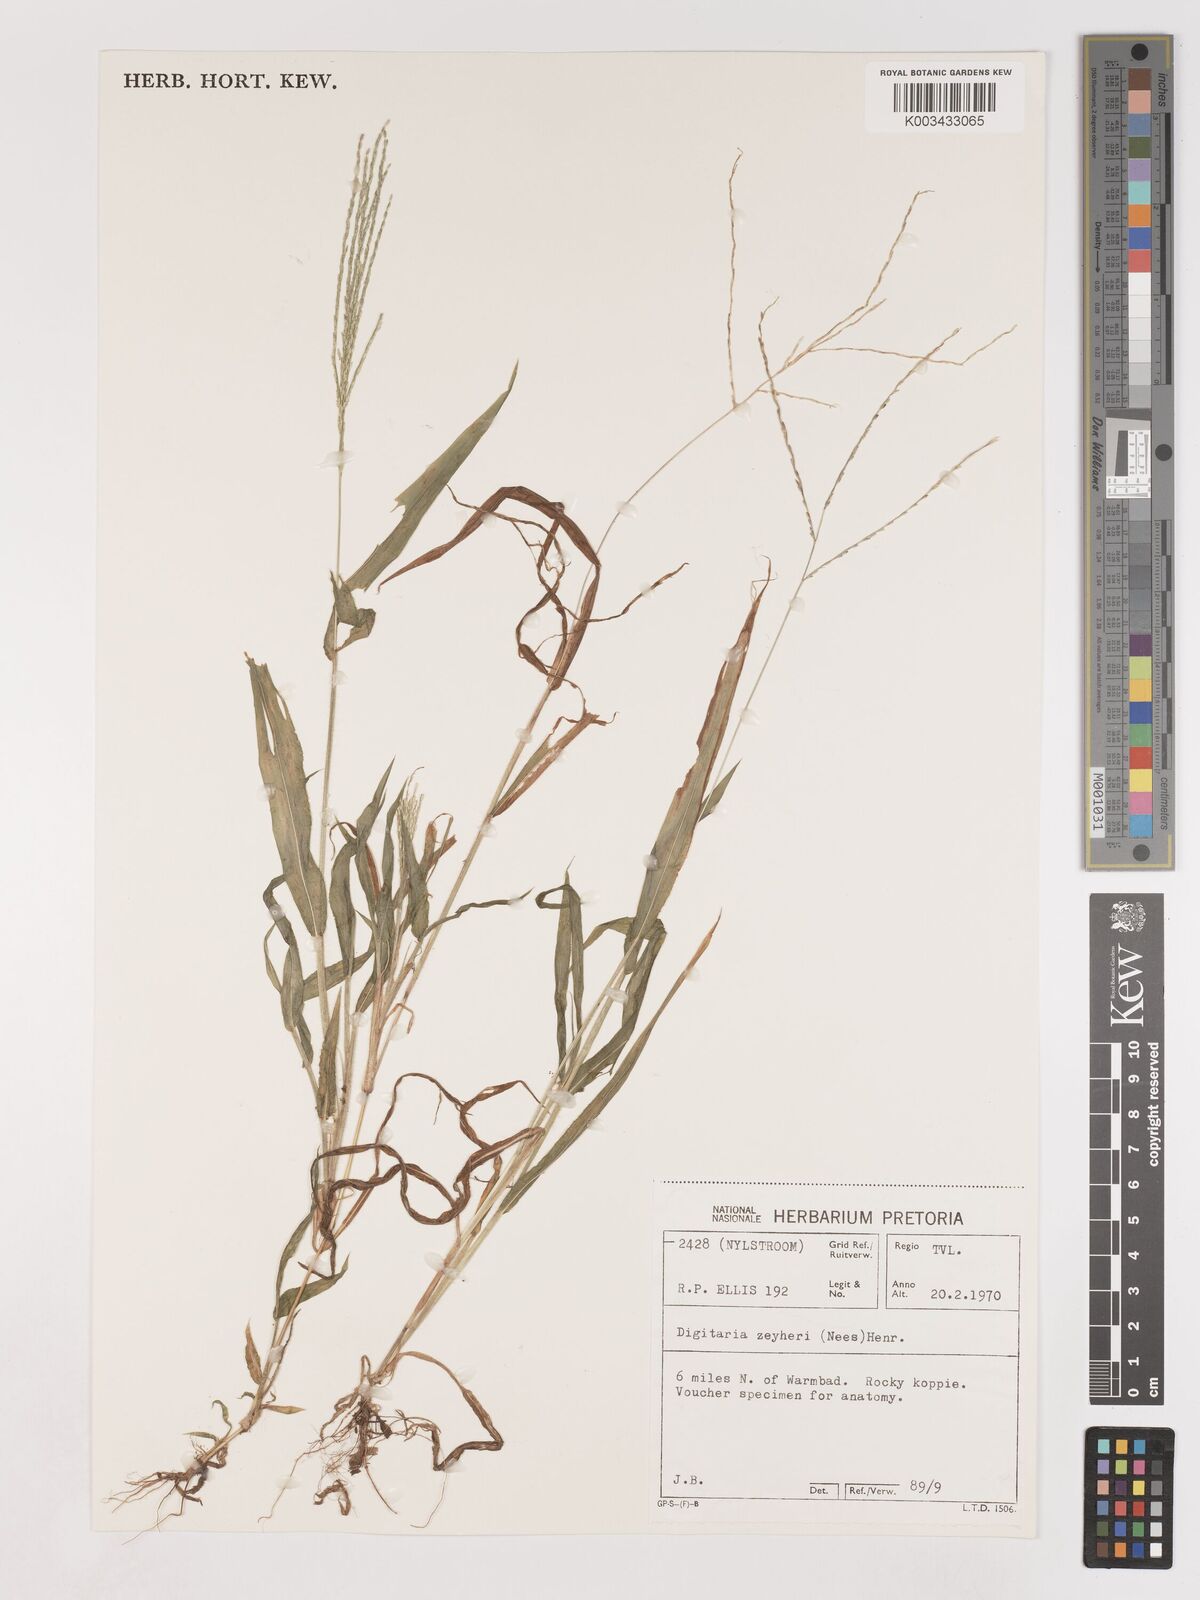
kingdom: Plantae
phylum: Tracheophyta
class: Liliopsida
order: Poales
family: Poaceae
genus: Digitaria
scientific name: Digitaria velutina
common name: Long-plume finger grass
